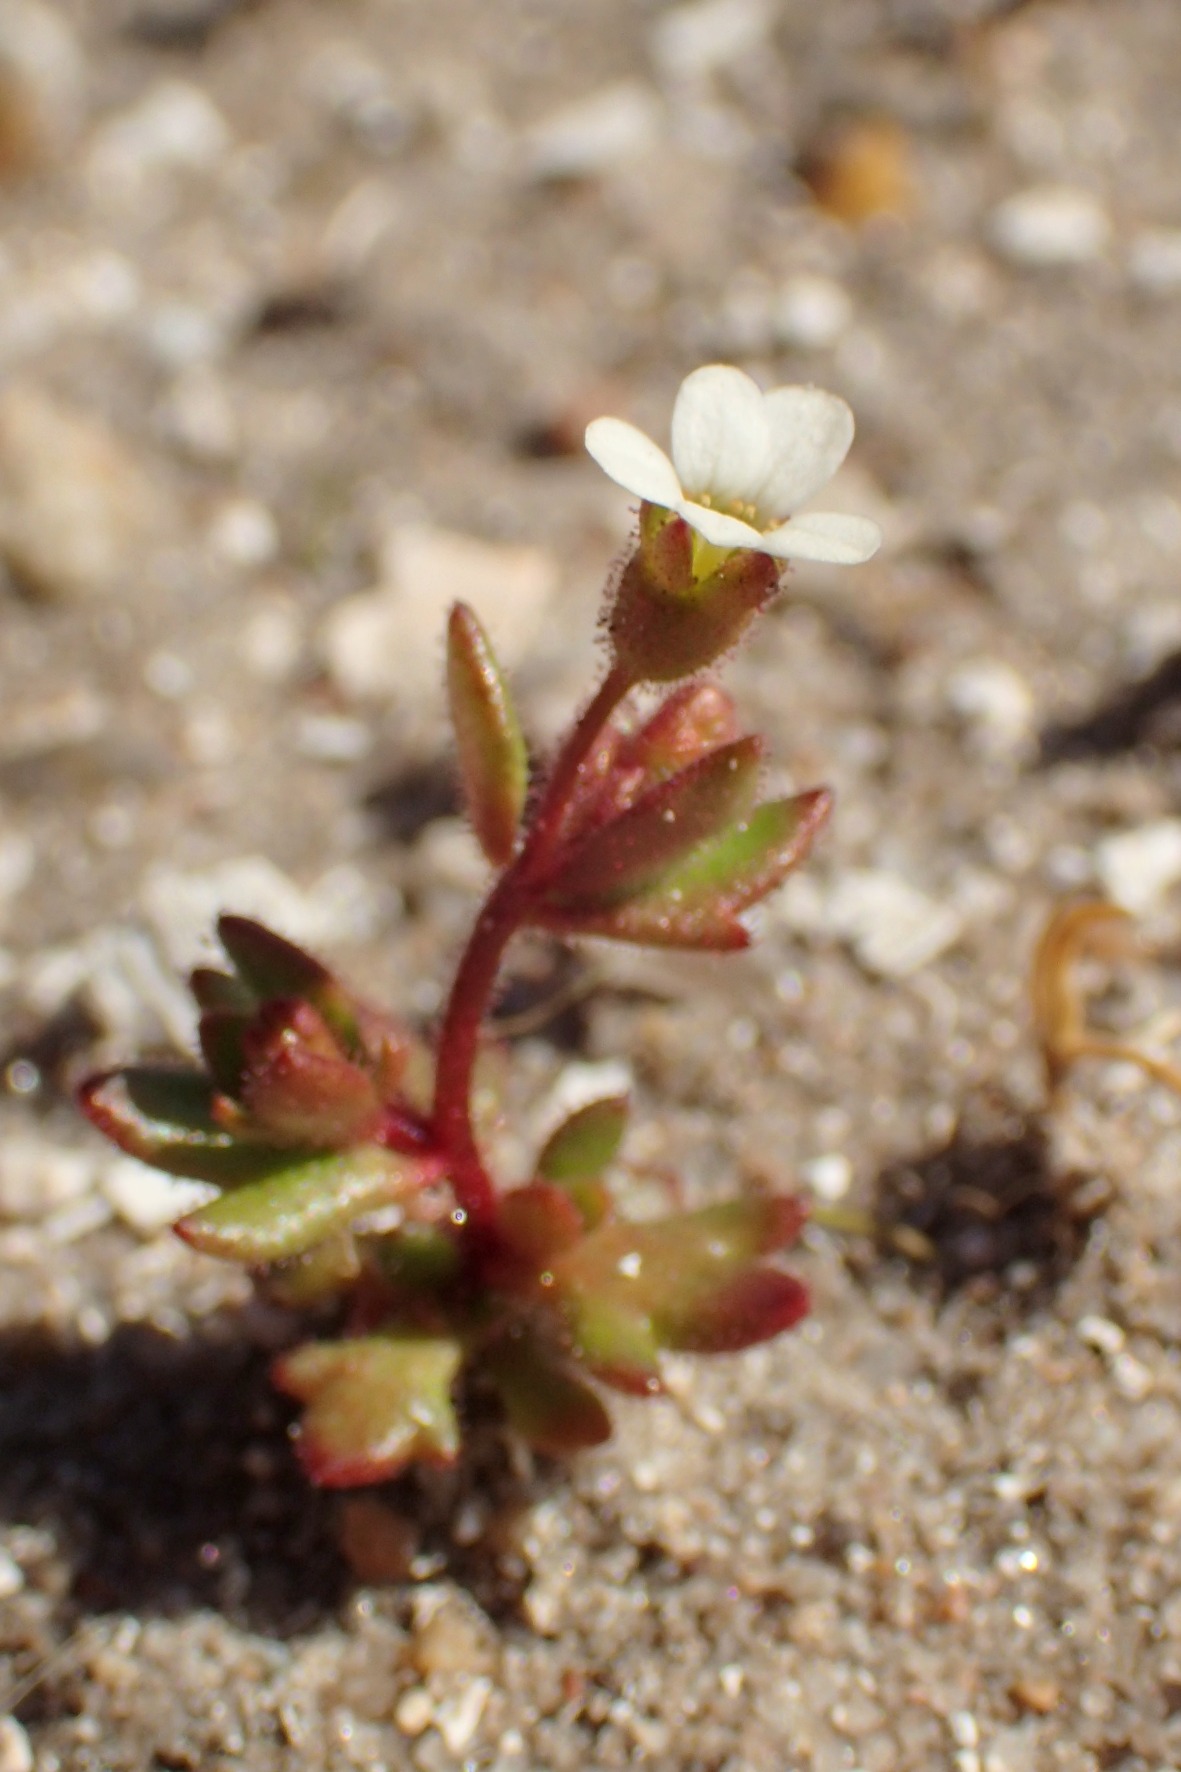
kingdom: Plantae
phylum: Tracheophyta
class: Magnoliopsida
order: Saxifragales
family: Saxifragaceae
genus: Saxifraga
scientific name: Saxifraga tridactylites
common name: Trekløft-stenbræk
